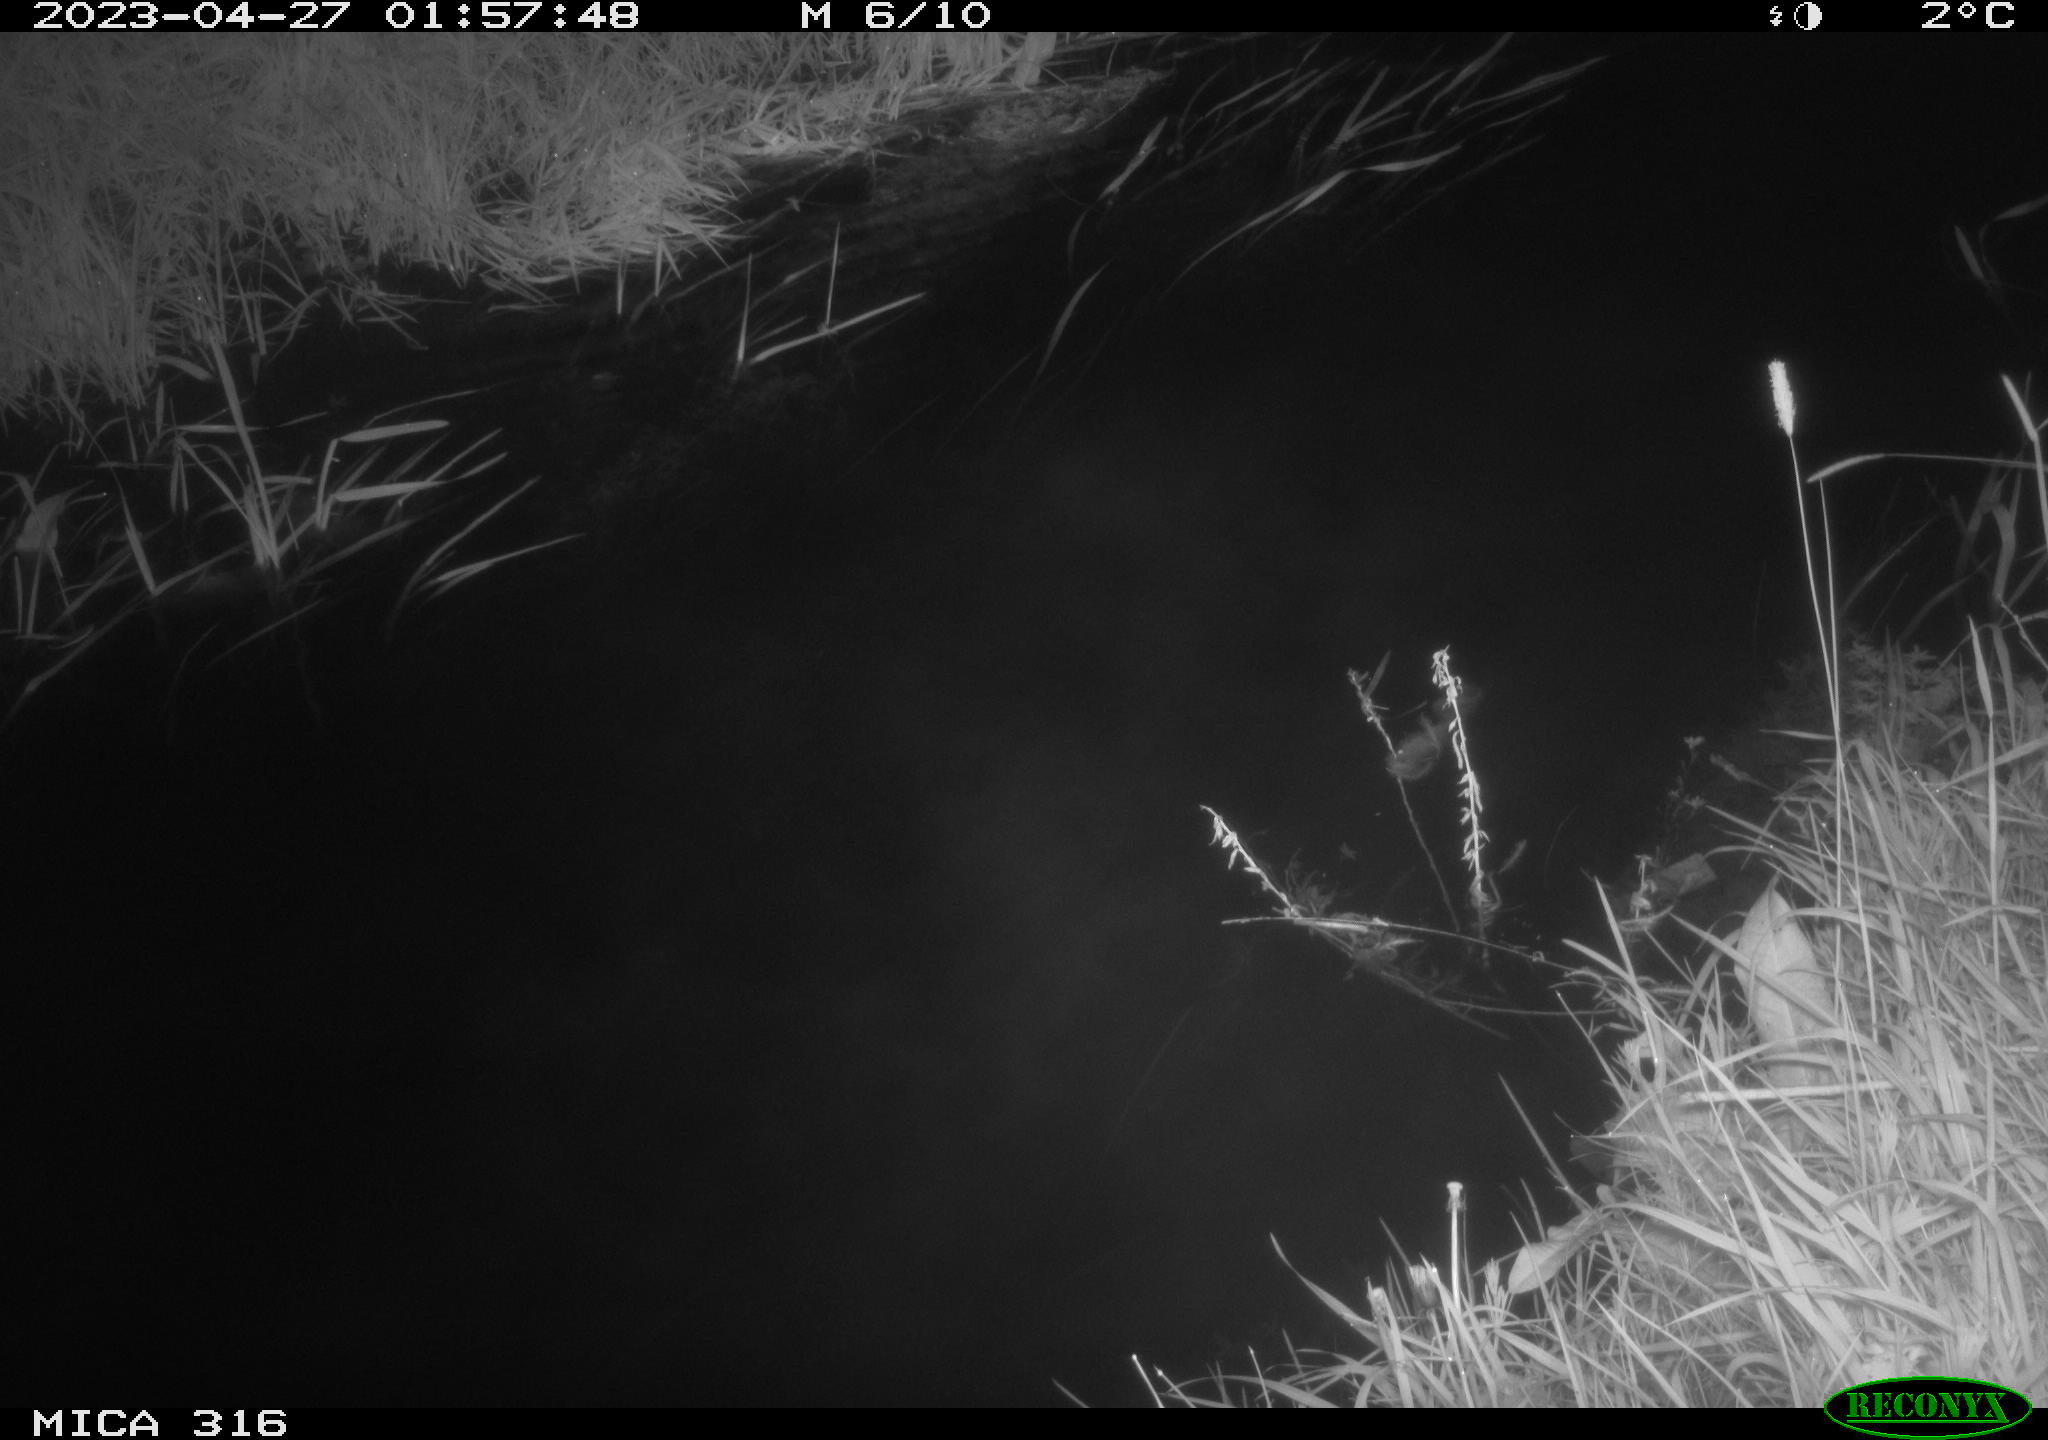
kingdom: Animalia
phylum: Chordata
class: Aves
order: Anseriformes
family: Anatidae
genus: Anas
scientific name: Anas
